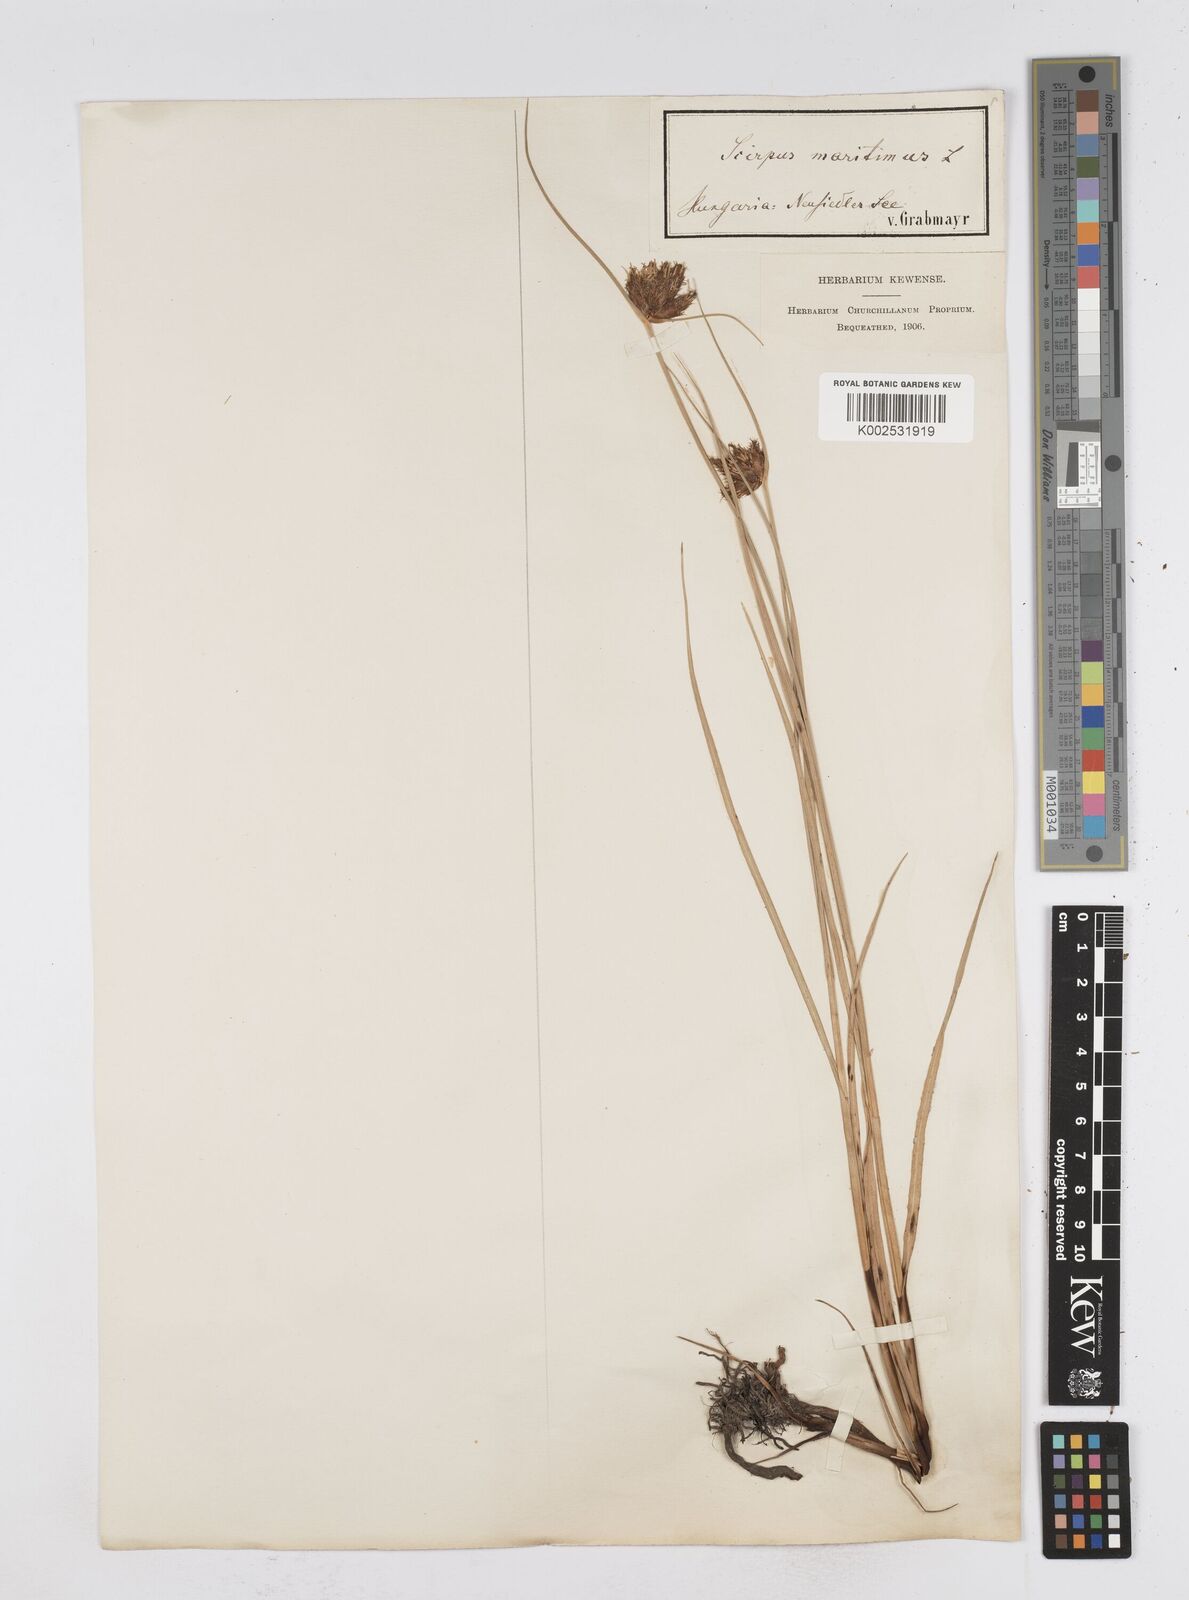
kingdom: Plantae
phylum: Tracheophyta
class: Liliopsida
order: Poales
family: Cyperaceae
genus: Bolboschoenus
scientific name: Bolboschoenus maritimus
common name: Sea club-rush
